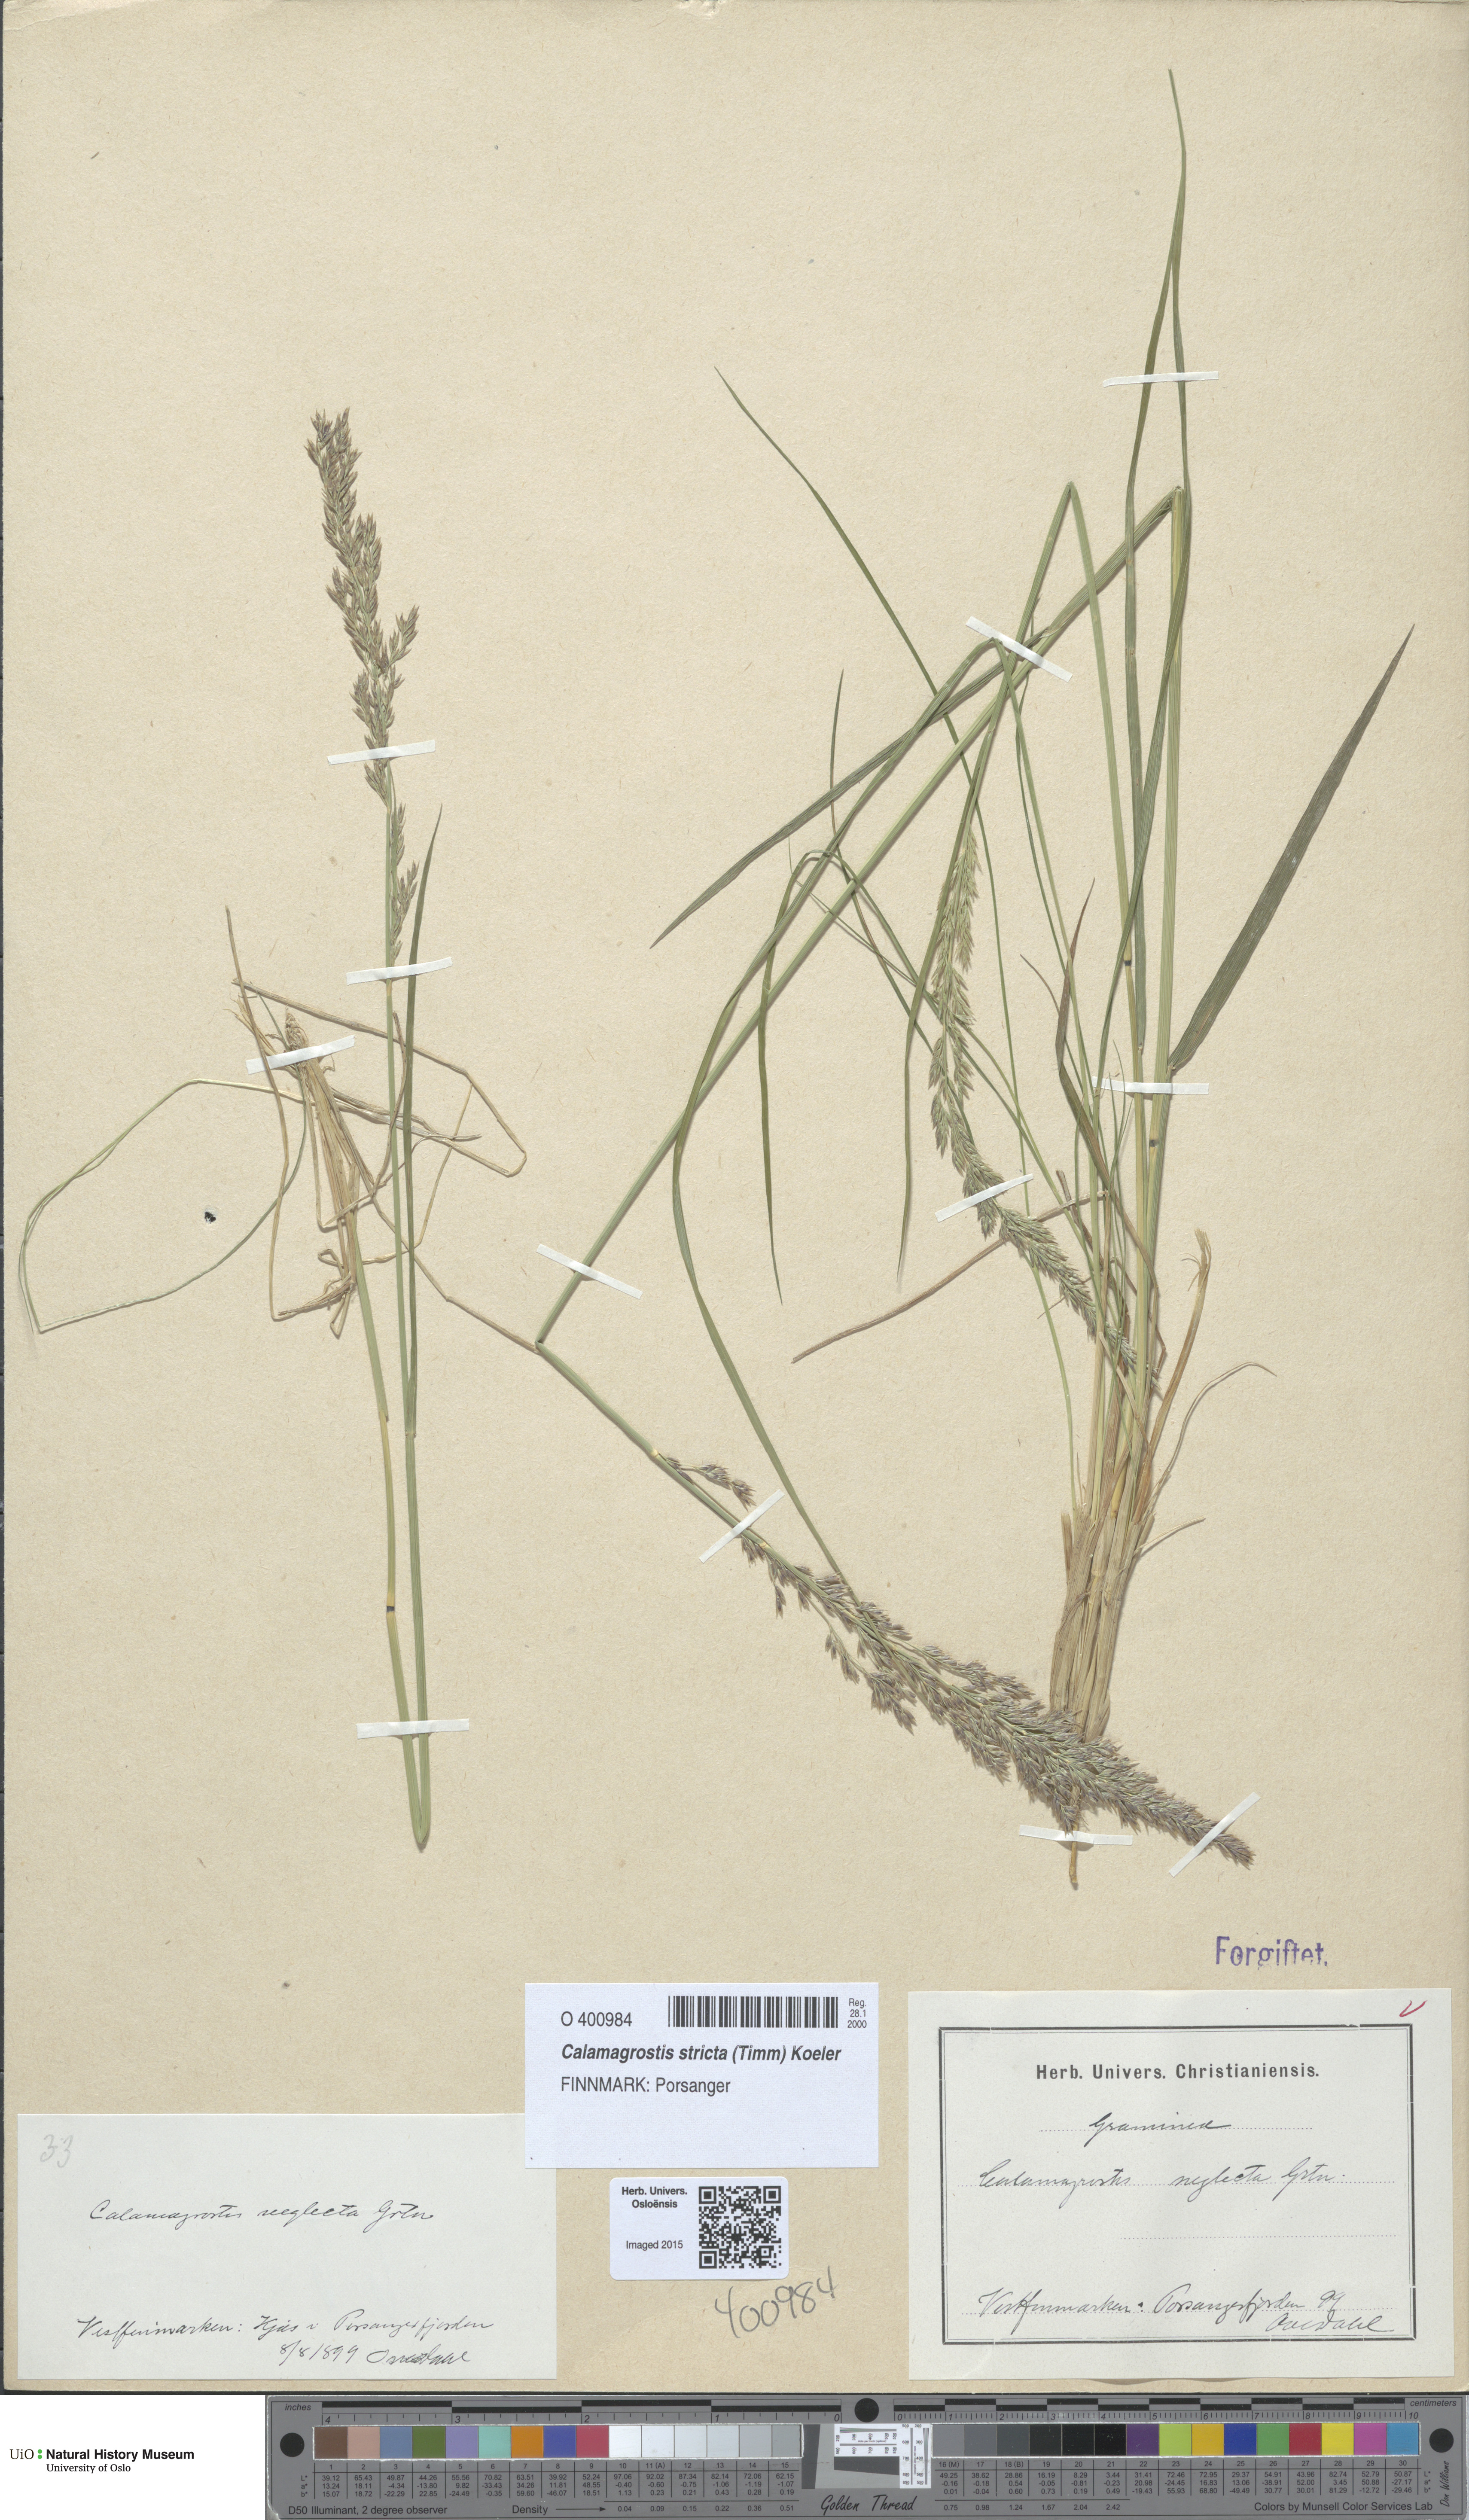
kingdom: Plantae
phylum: Tracheophyta
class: Liliopsida
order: Poales
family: Poaceae
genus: Achnatherum
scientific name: Achnatherum calamagrostis
